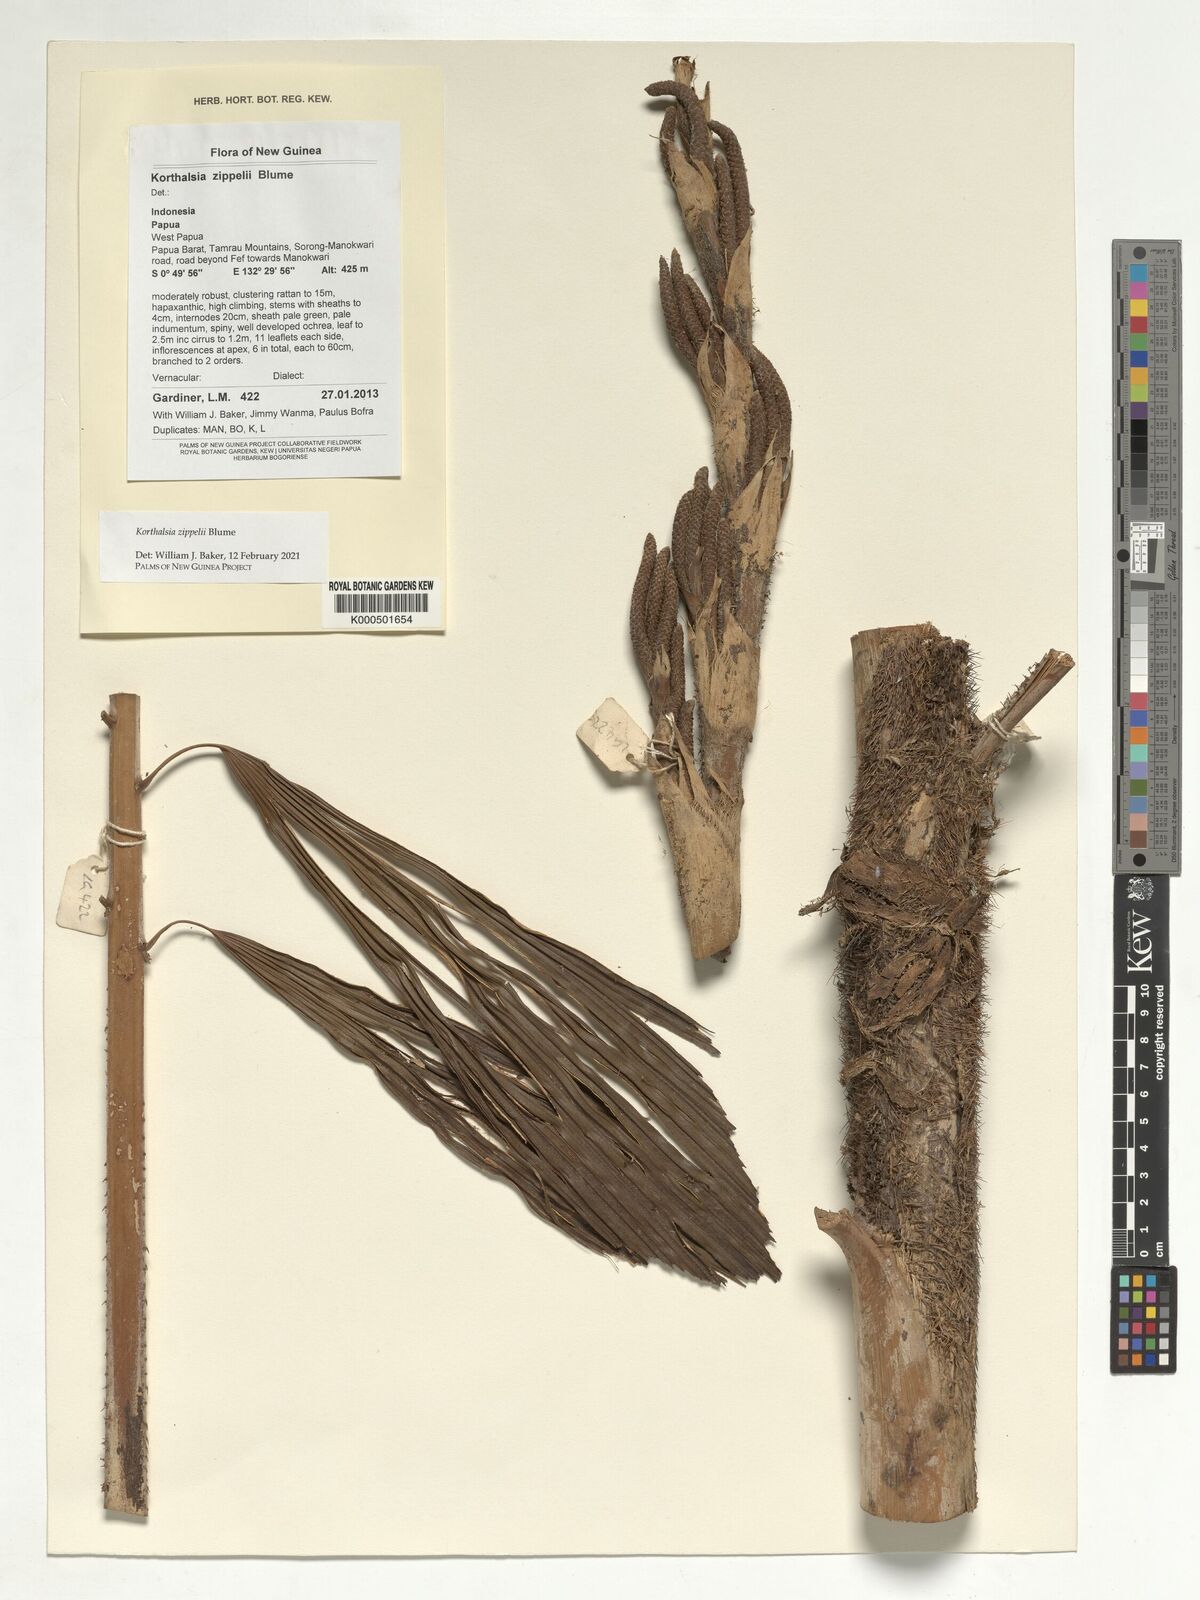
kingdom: Plantae
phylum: Tracheophyta
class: Liliopsida
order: Arecales
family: Arecaceae
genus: Korthalsia
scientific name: Korthalsia zippelii
